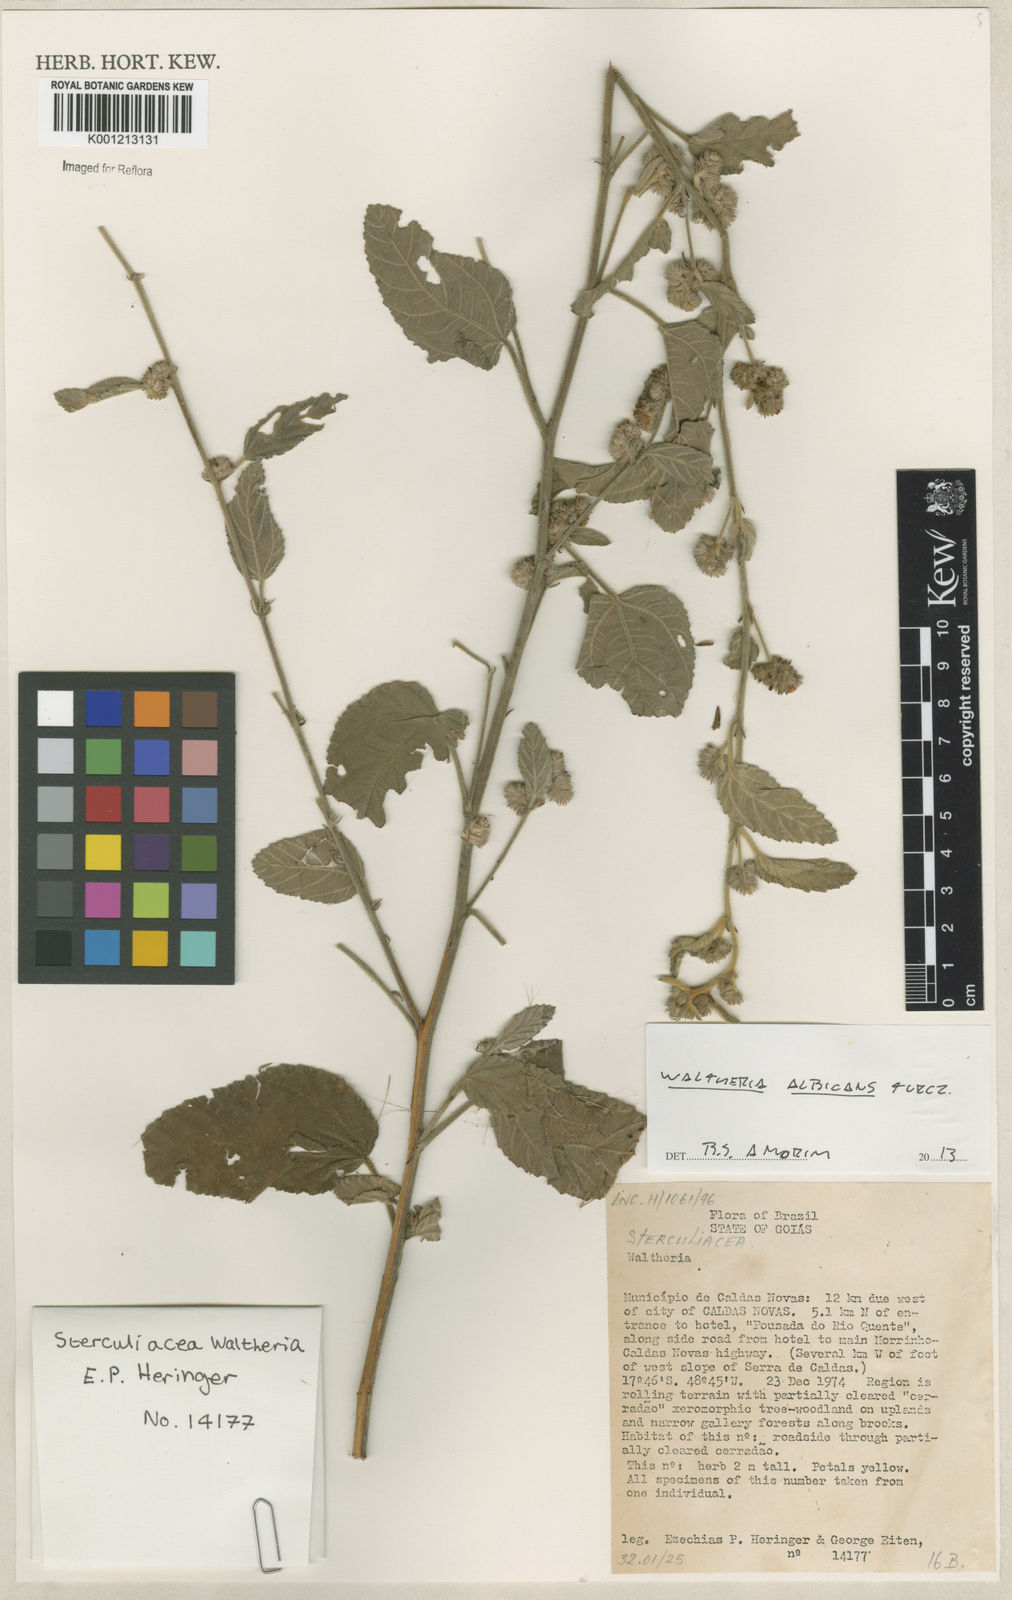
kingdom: Plantae
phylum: Tracheophyta
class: Magnoliopsida
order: Malvales
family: Malvaceae
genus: Waltheria
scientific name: Waltheria albicans
